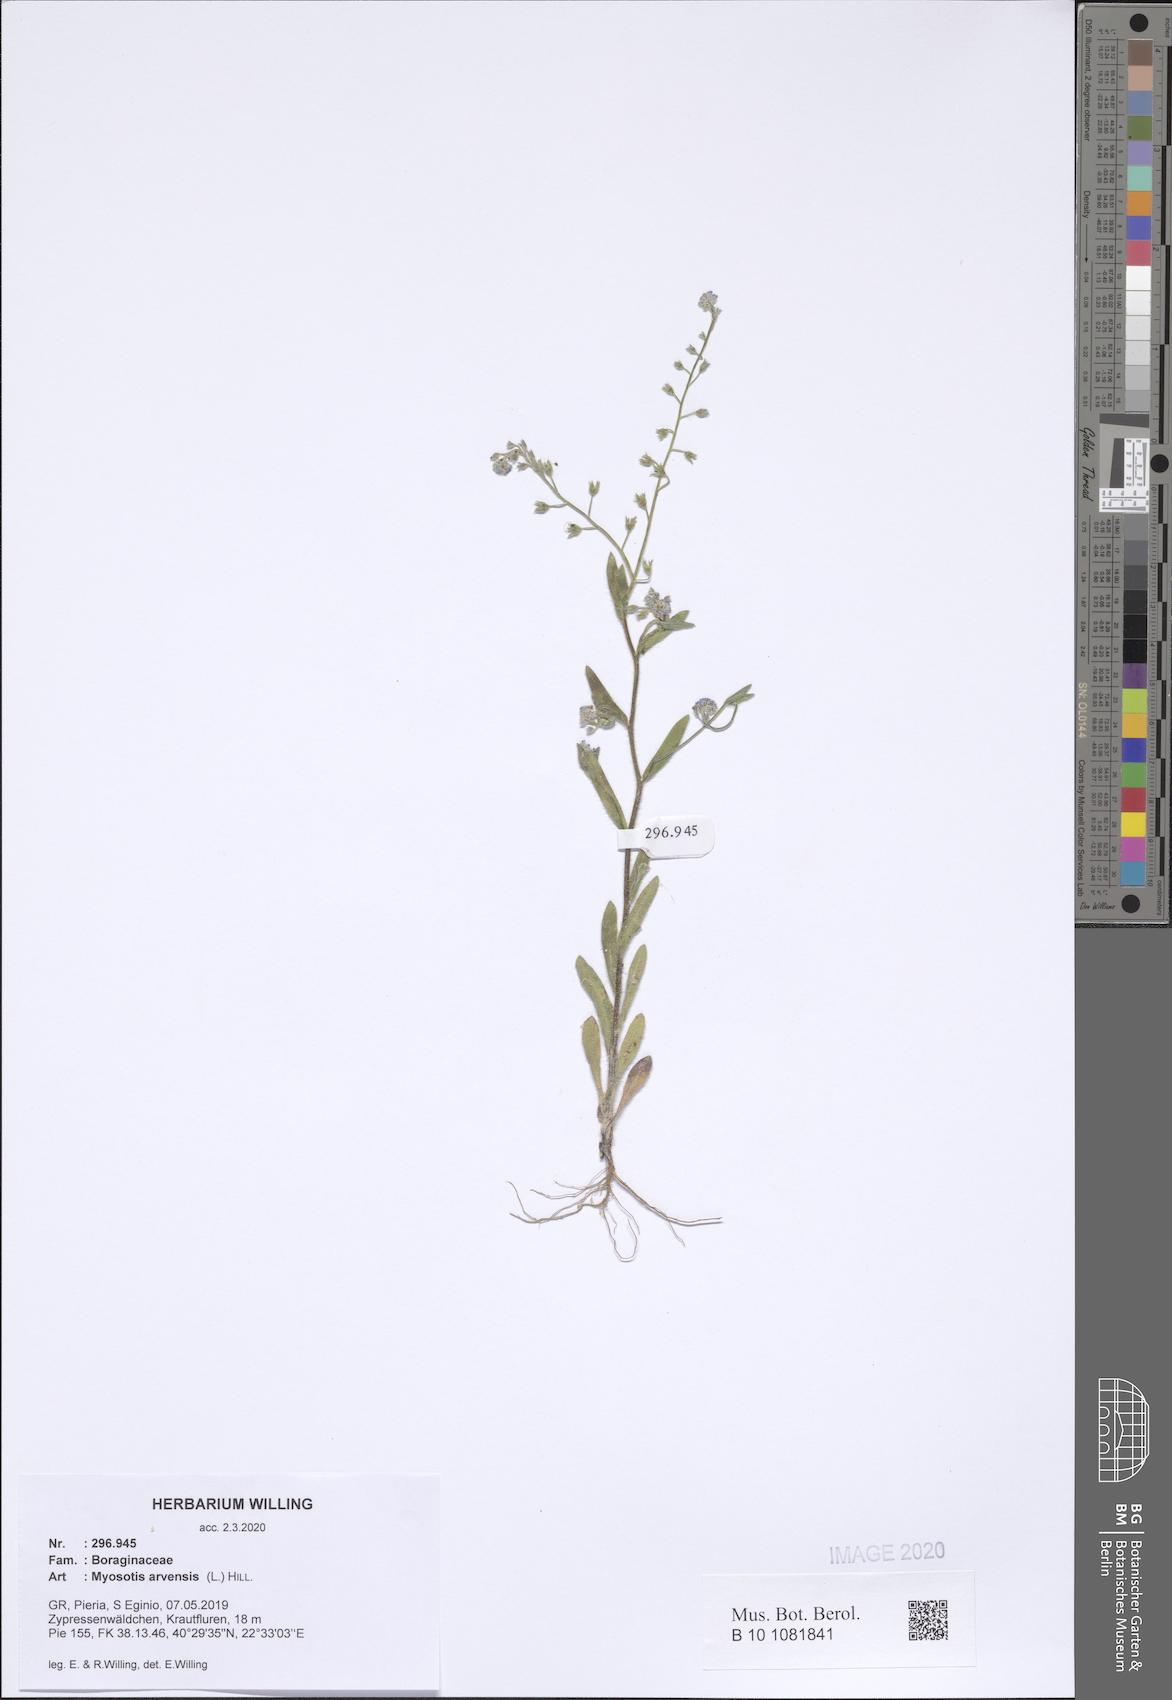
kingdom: Plantae
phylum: Tracheophyta
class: Magnoliopsida
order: Boraginales
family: Boraginaceae
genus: Myosotis
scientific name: Myosotis arvensis
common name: Field forget-me-not
